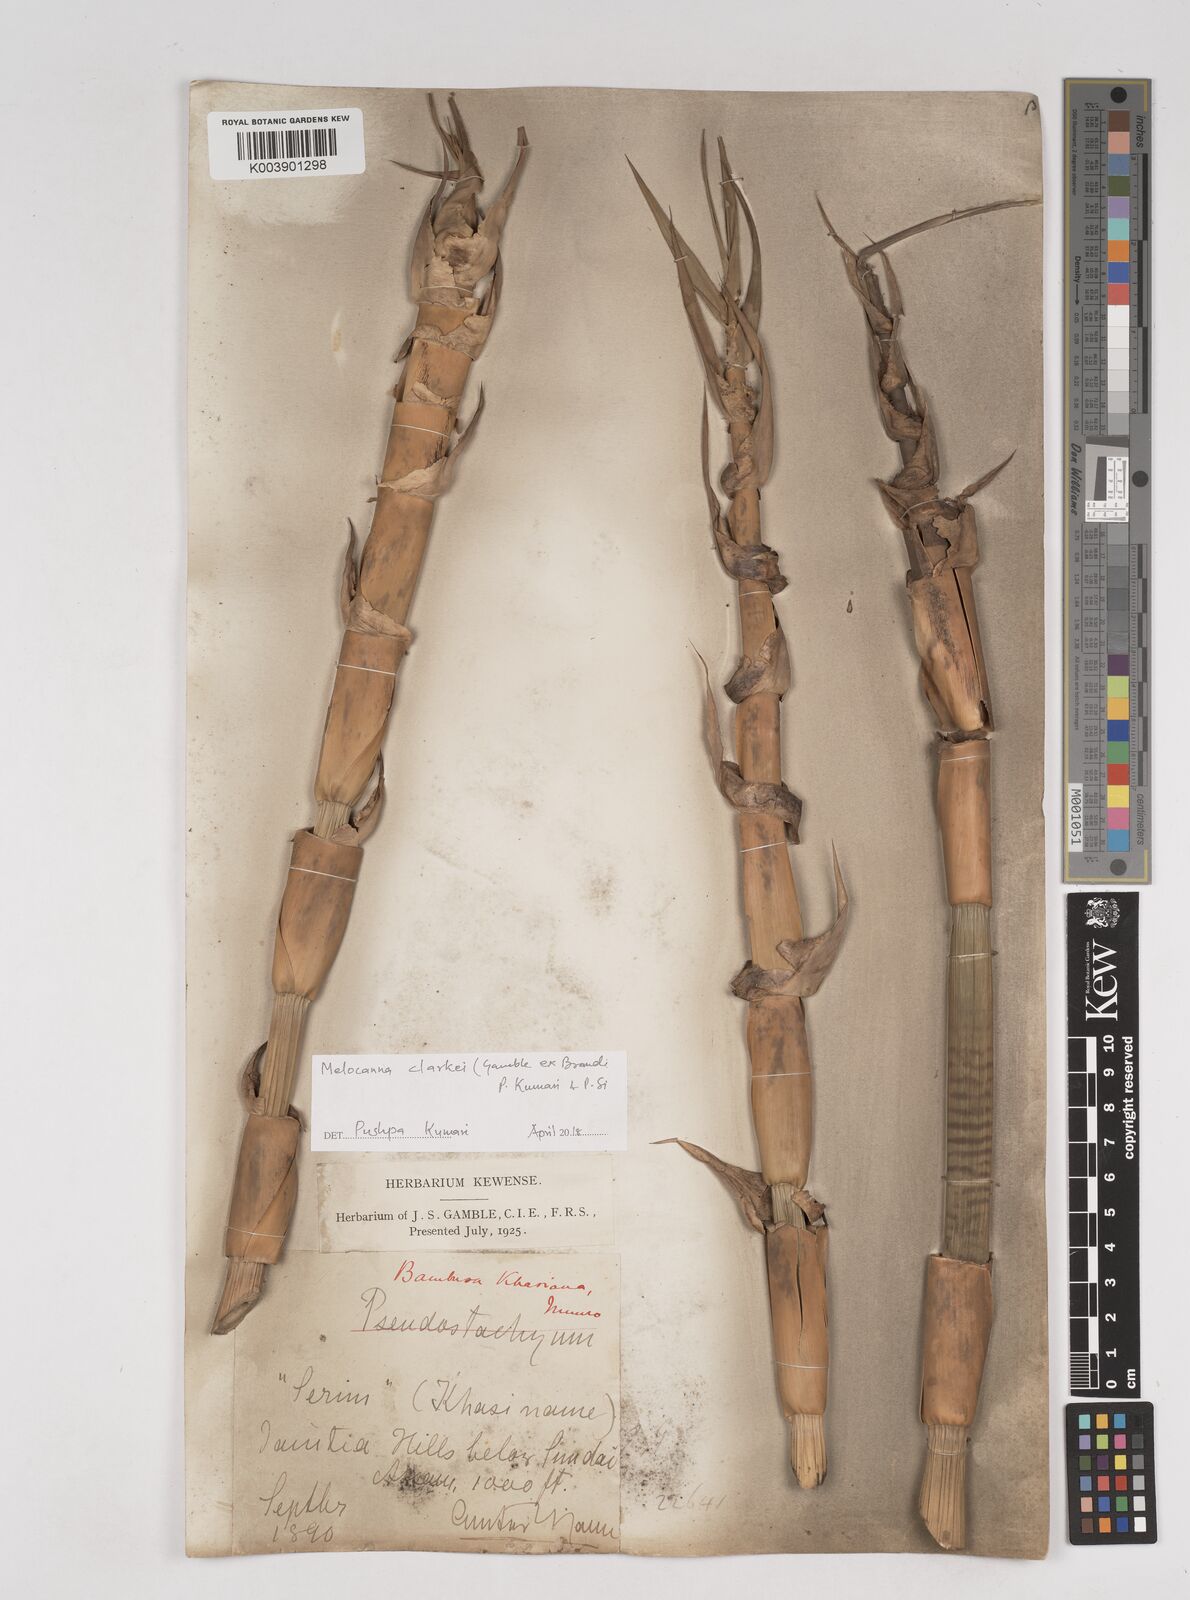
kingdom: Plantae
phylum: Tracheophyta
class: Liliopsida
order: Poales
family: Poaceae
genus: Melocanna
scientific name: Melocanna clarkei
